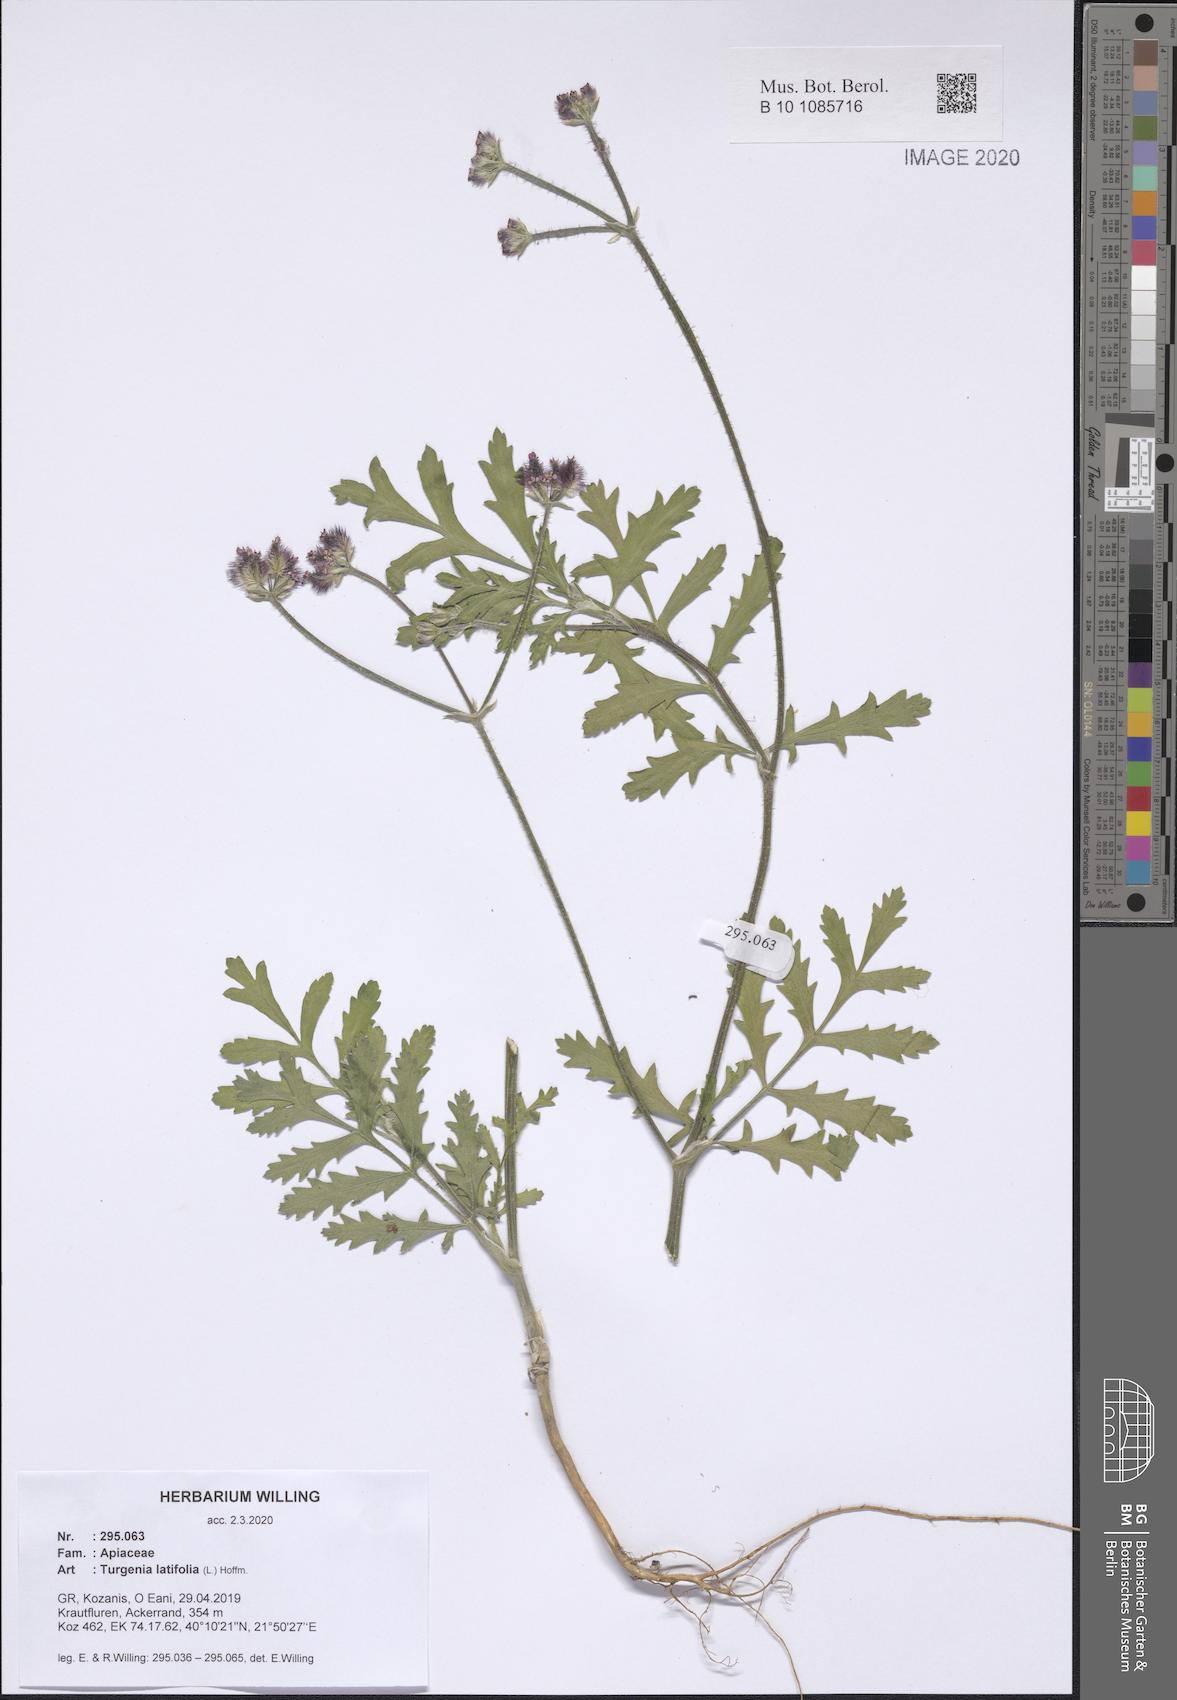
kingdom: Plantae
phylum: Tracheophyta
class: Magnoliopsida
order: Apiales
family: Apiaceae
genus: Turgenia
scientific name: Turgenia latifolia
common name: Greater bur-parsley
